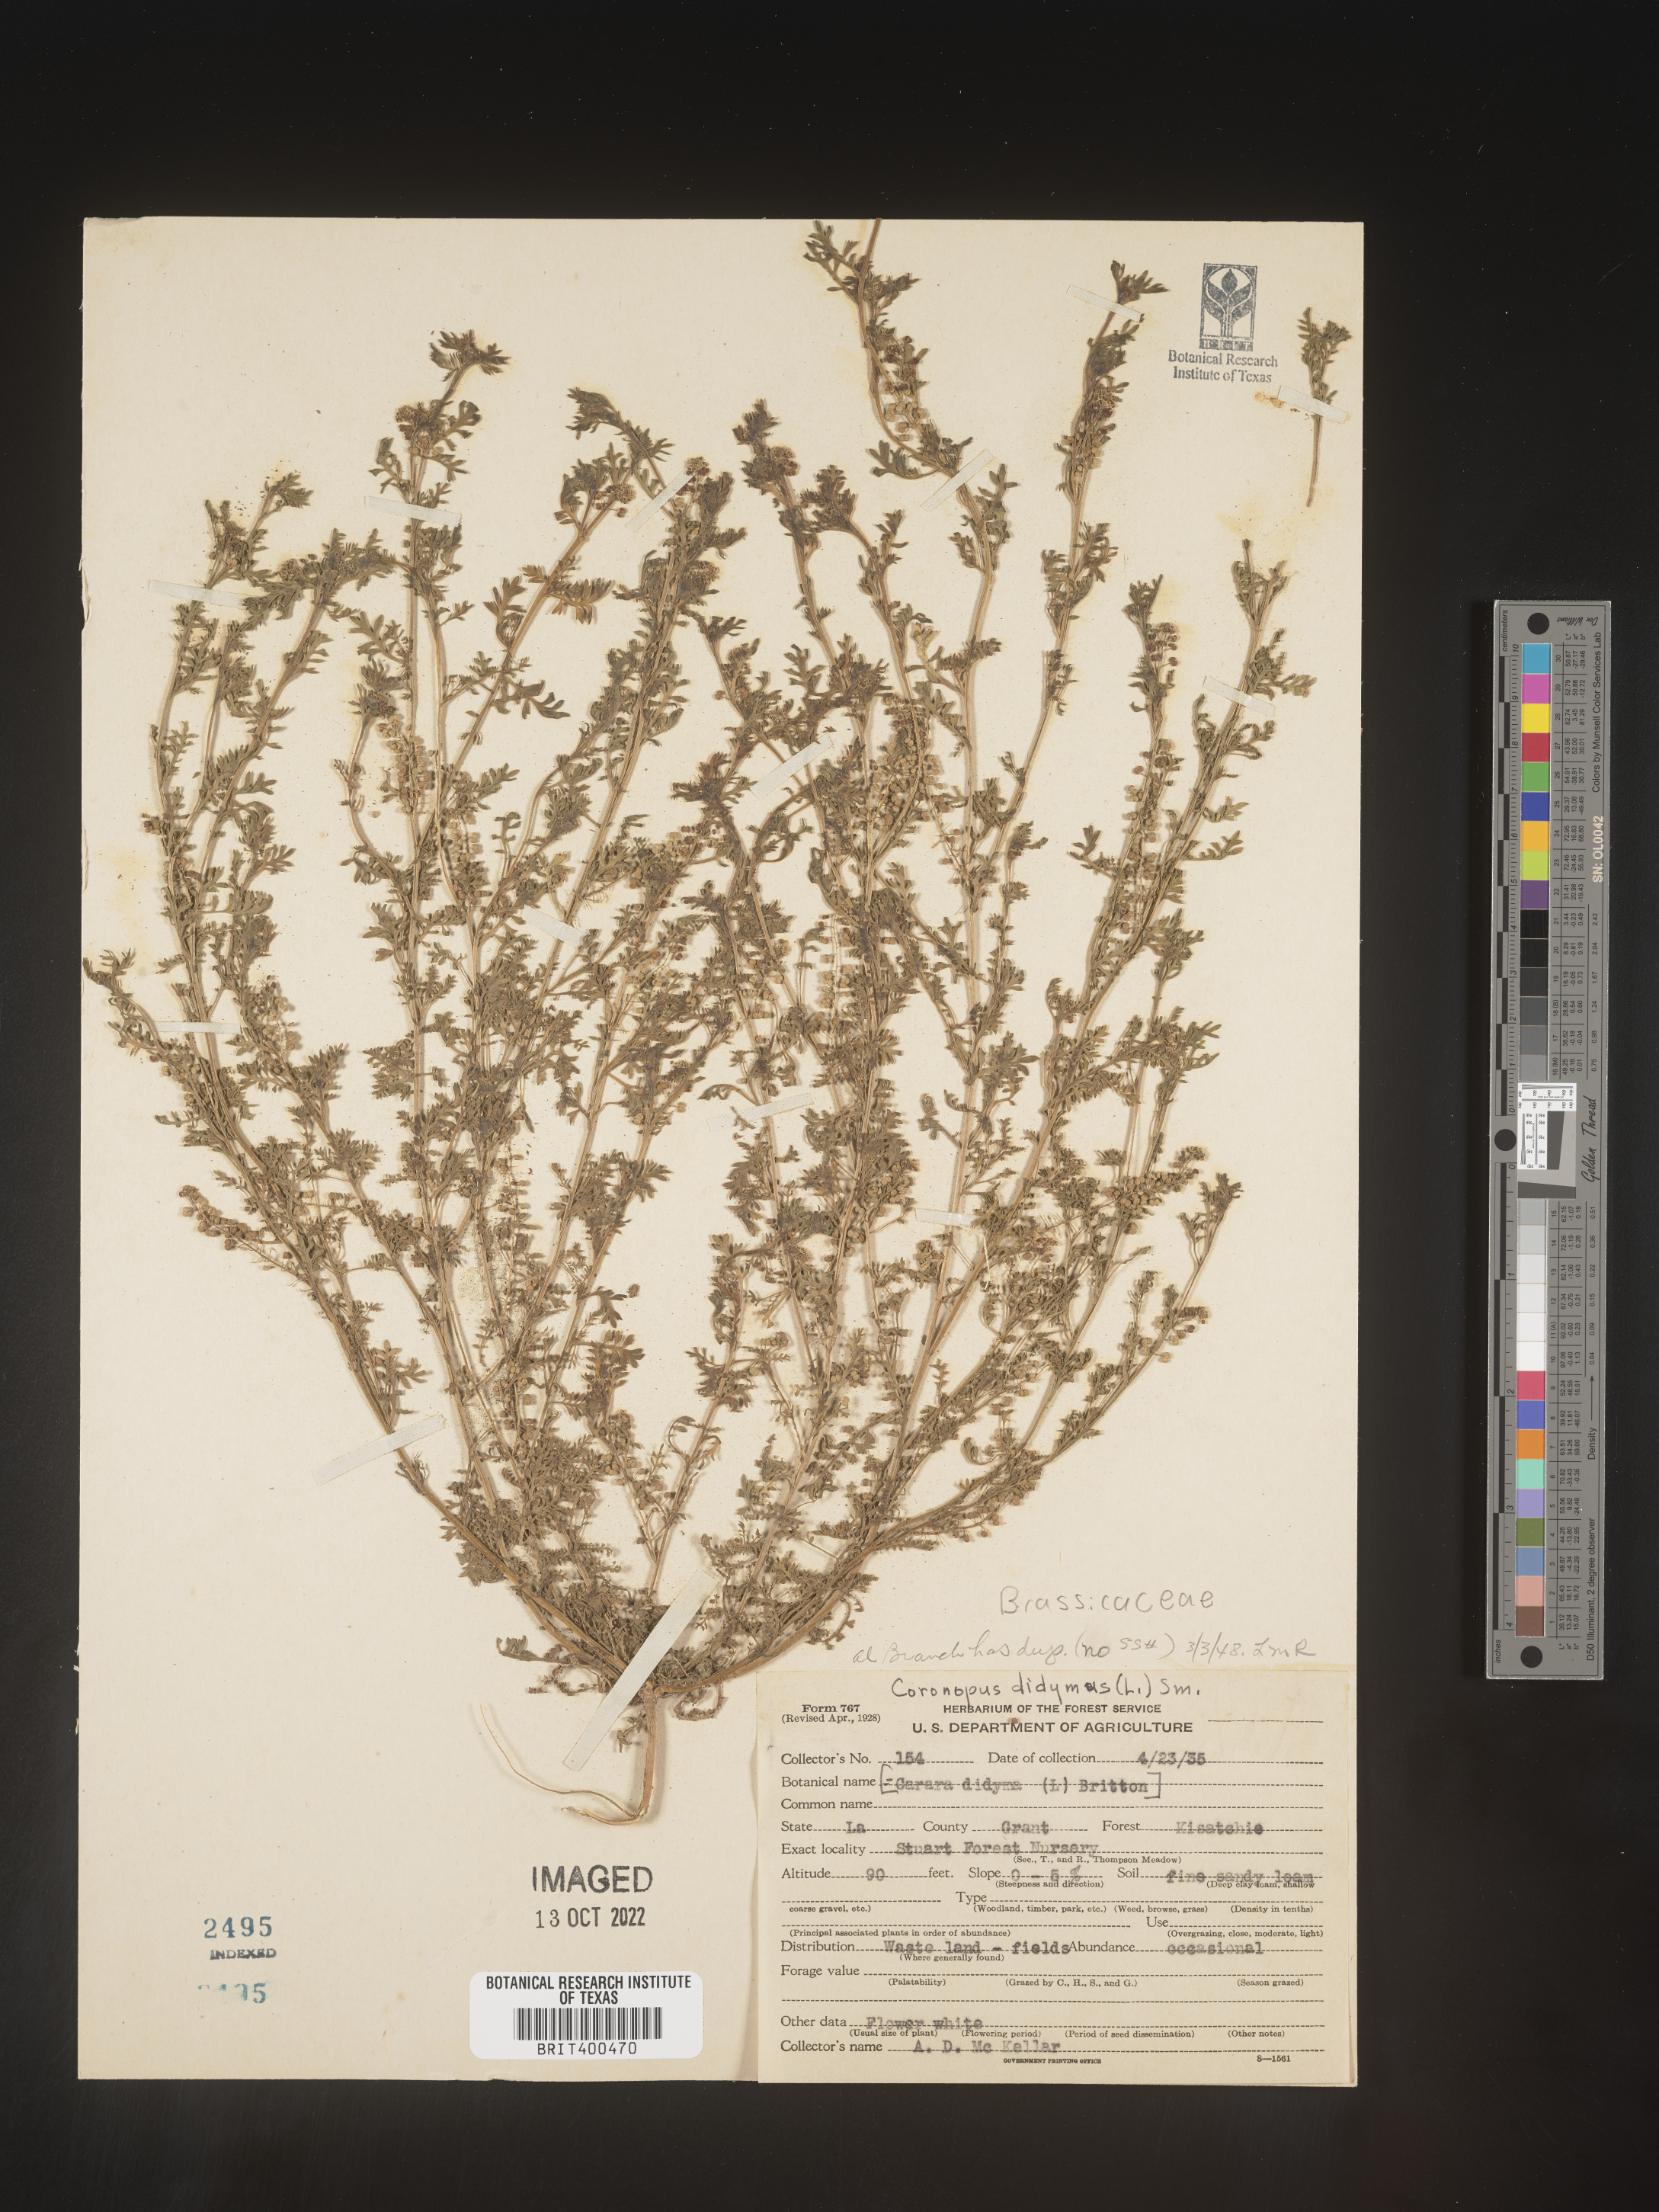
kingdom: Plantae
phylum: Tracheophyta
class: Magnoliopsida
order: Brassicales
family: Brassicaceae
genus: Coronopus
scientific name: Coronopus
